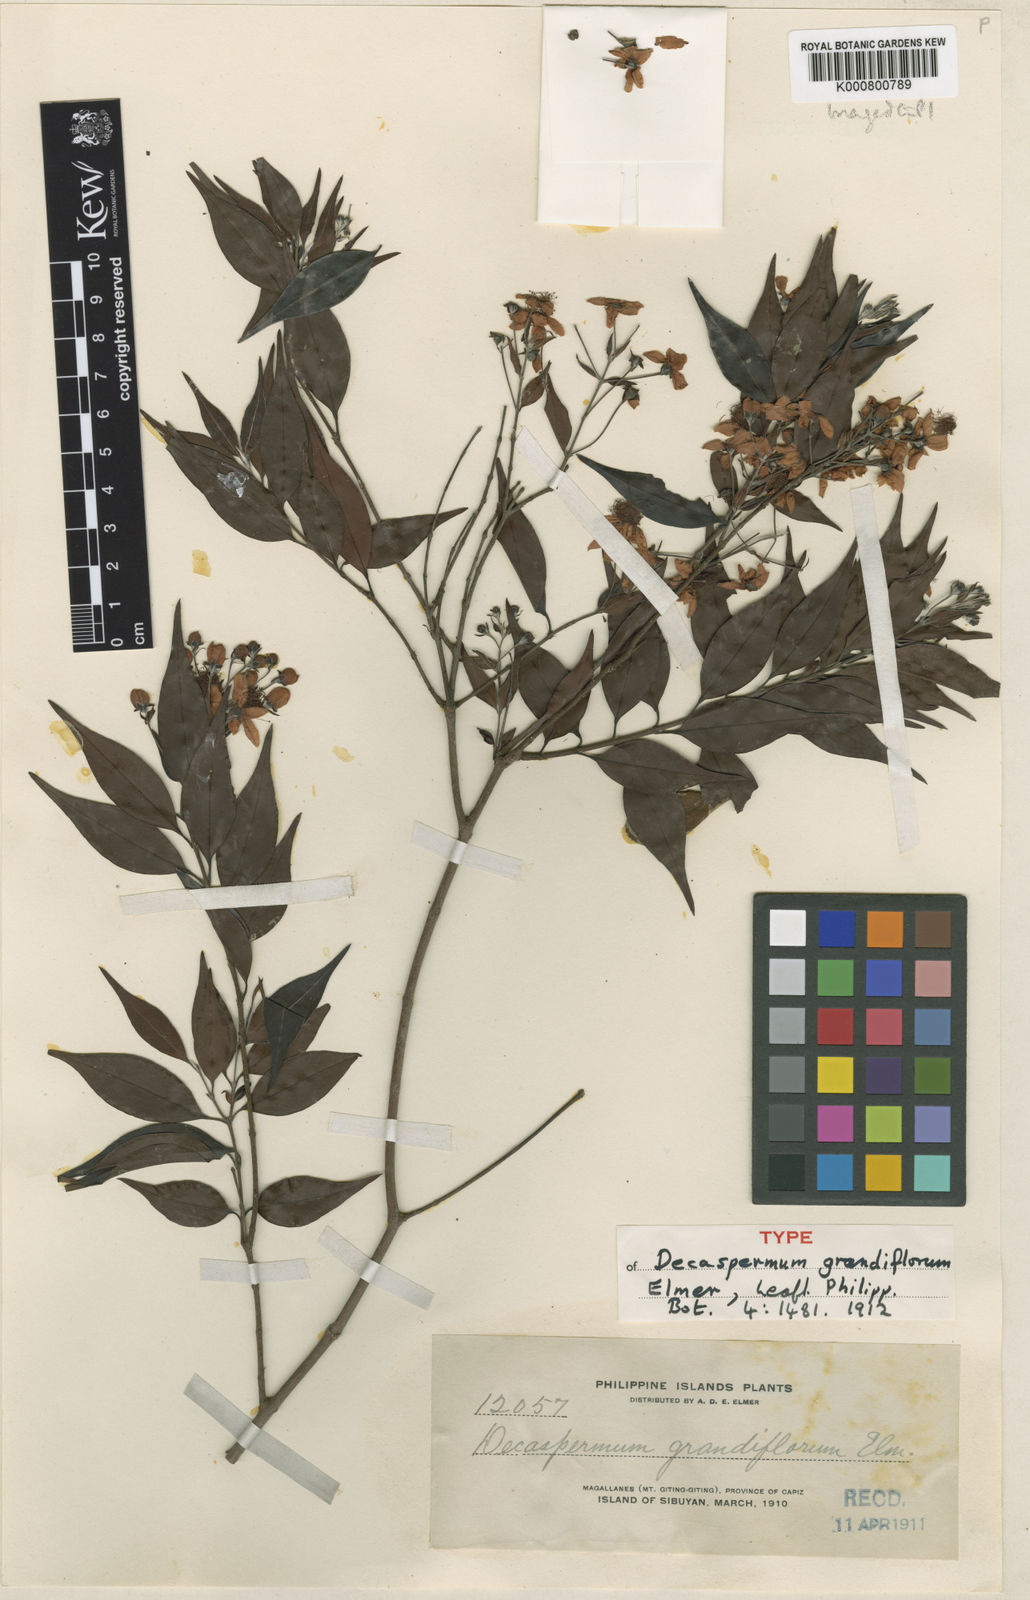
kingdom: Plantae
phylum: Tracheophyta
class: Magnoliopsida
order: Myrtales
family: Myrtaceae
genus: Decaspermum
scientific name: Decaspermum blancoi
